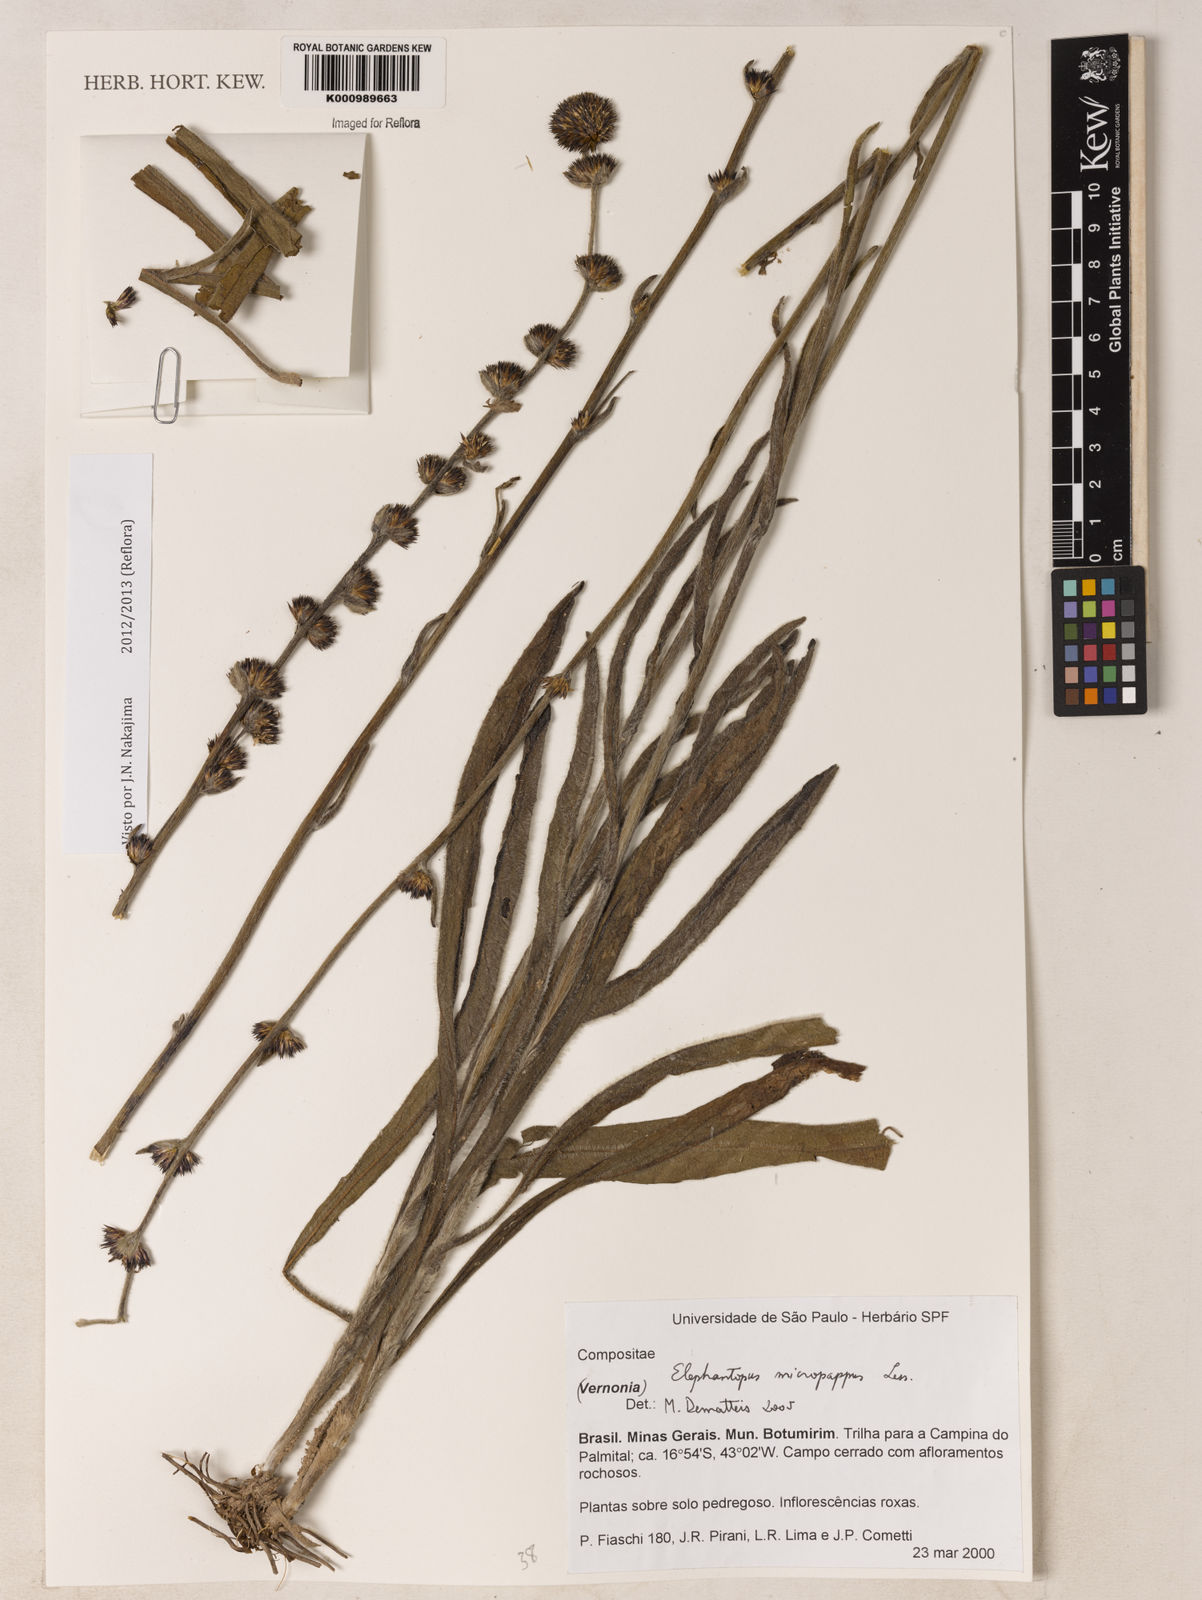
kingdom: Plantae
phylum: Tracheophyta
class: Magnoliopsida
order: Asterales
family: Asteraceae
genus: Elephantopus
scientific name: Elephantopus micropappus
